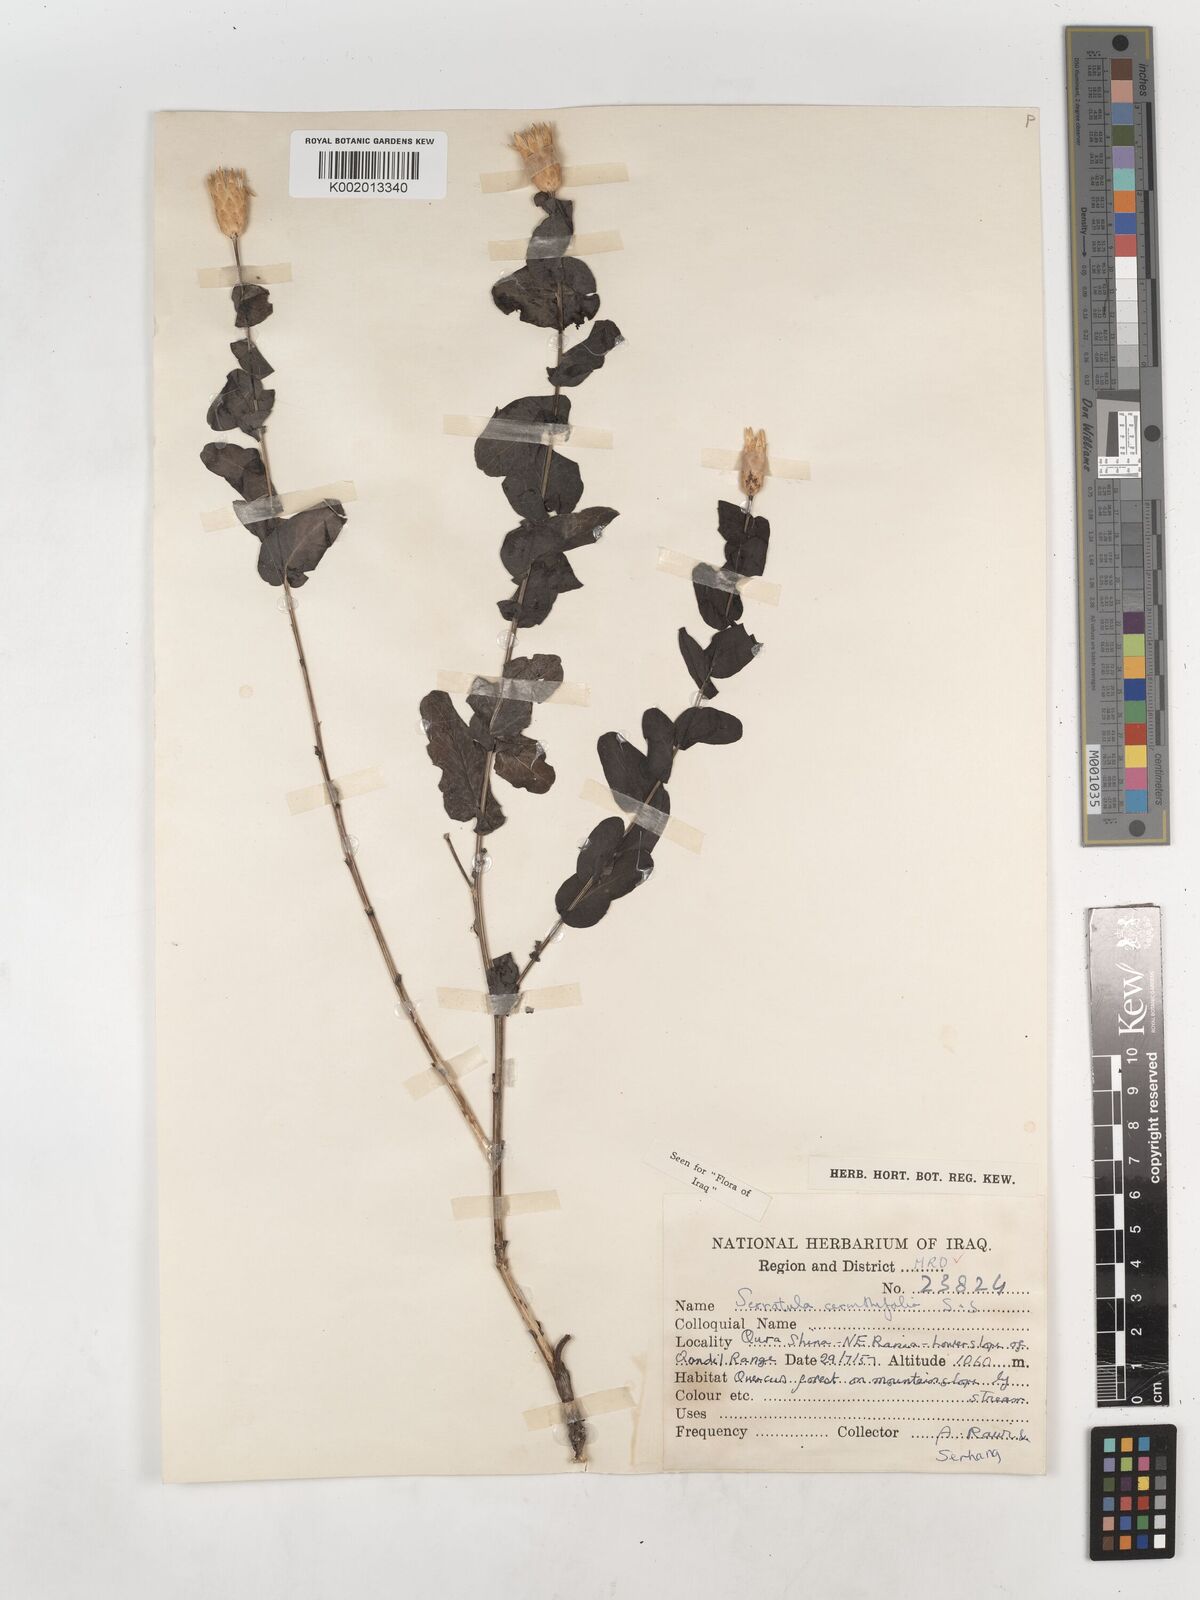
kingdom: Plantae
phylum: Tracheophyta
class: Magnoliopsida
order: Asterales
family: Asteraceae
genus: Klasea
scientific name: Klasea cerinthifolia
